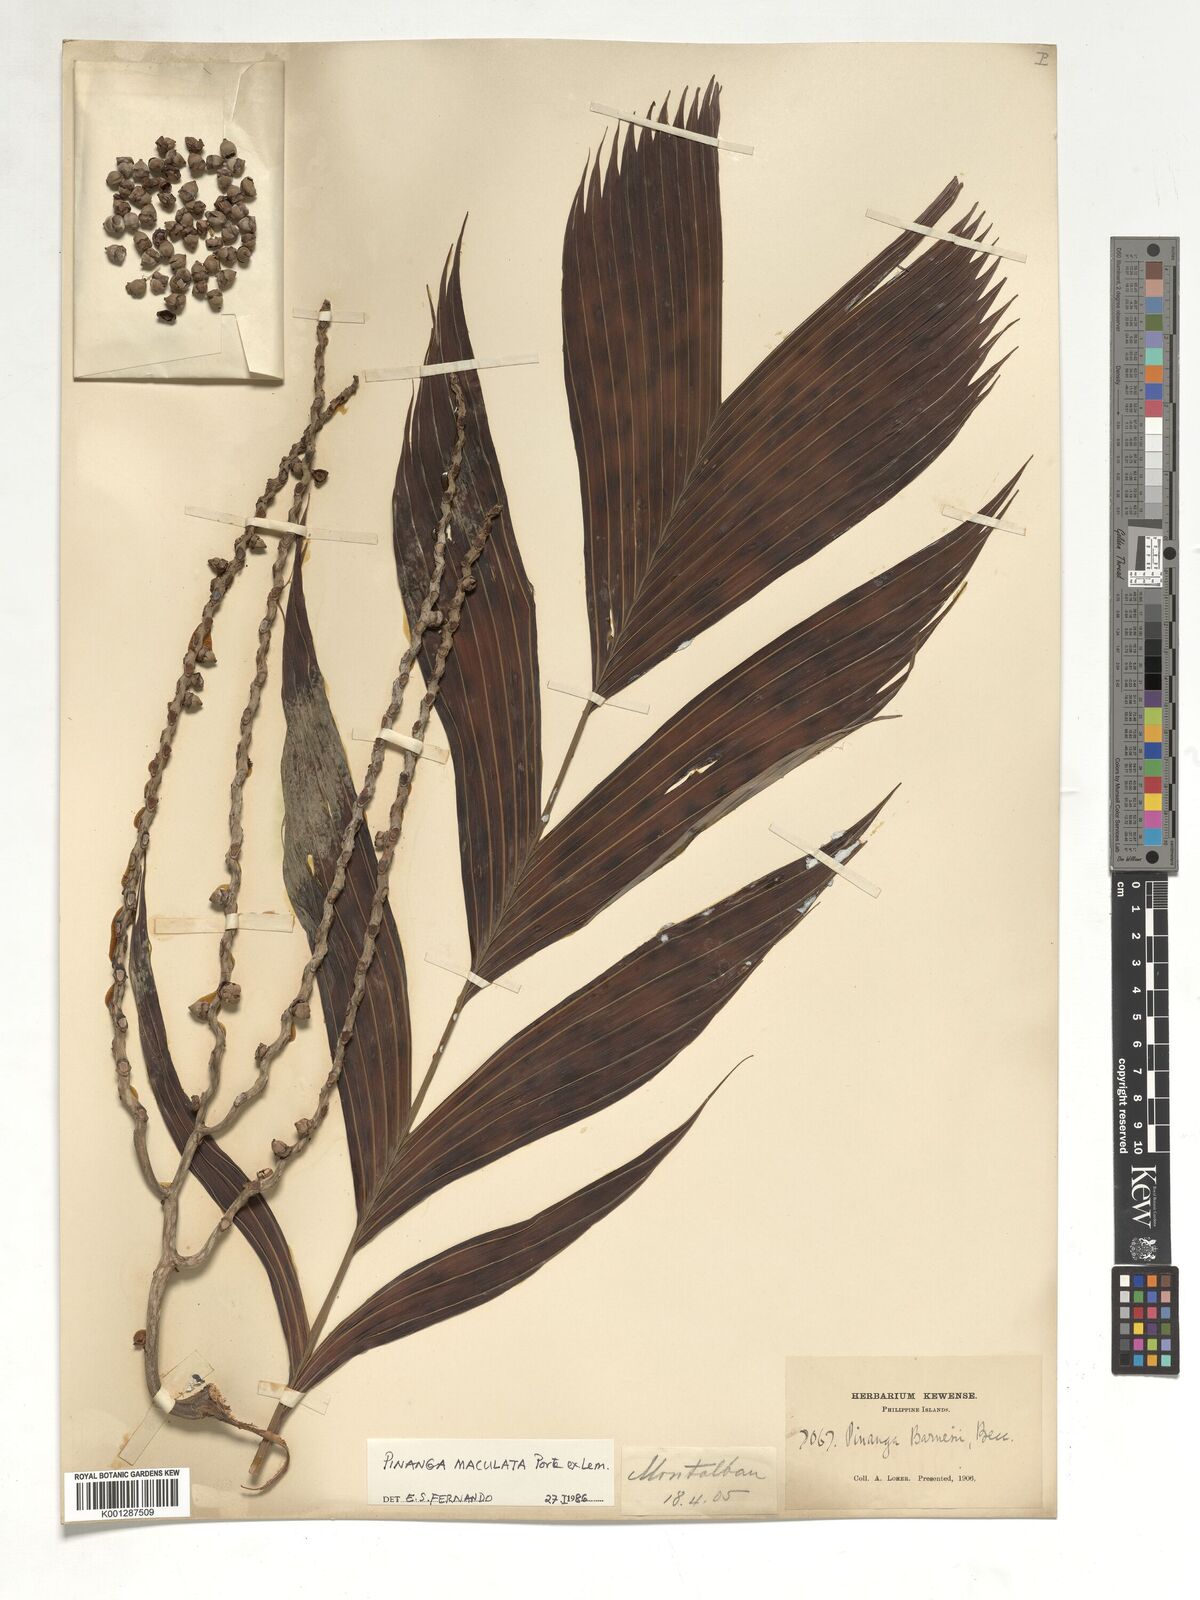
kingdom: Plantae
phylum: Tracheophyta
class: Liliopsida
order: Arecales
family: Arecaceae
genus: Pinanga
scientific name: Pinanga maculata
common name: Tiger palm
